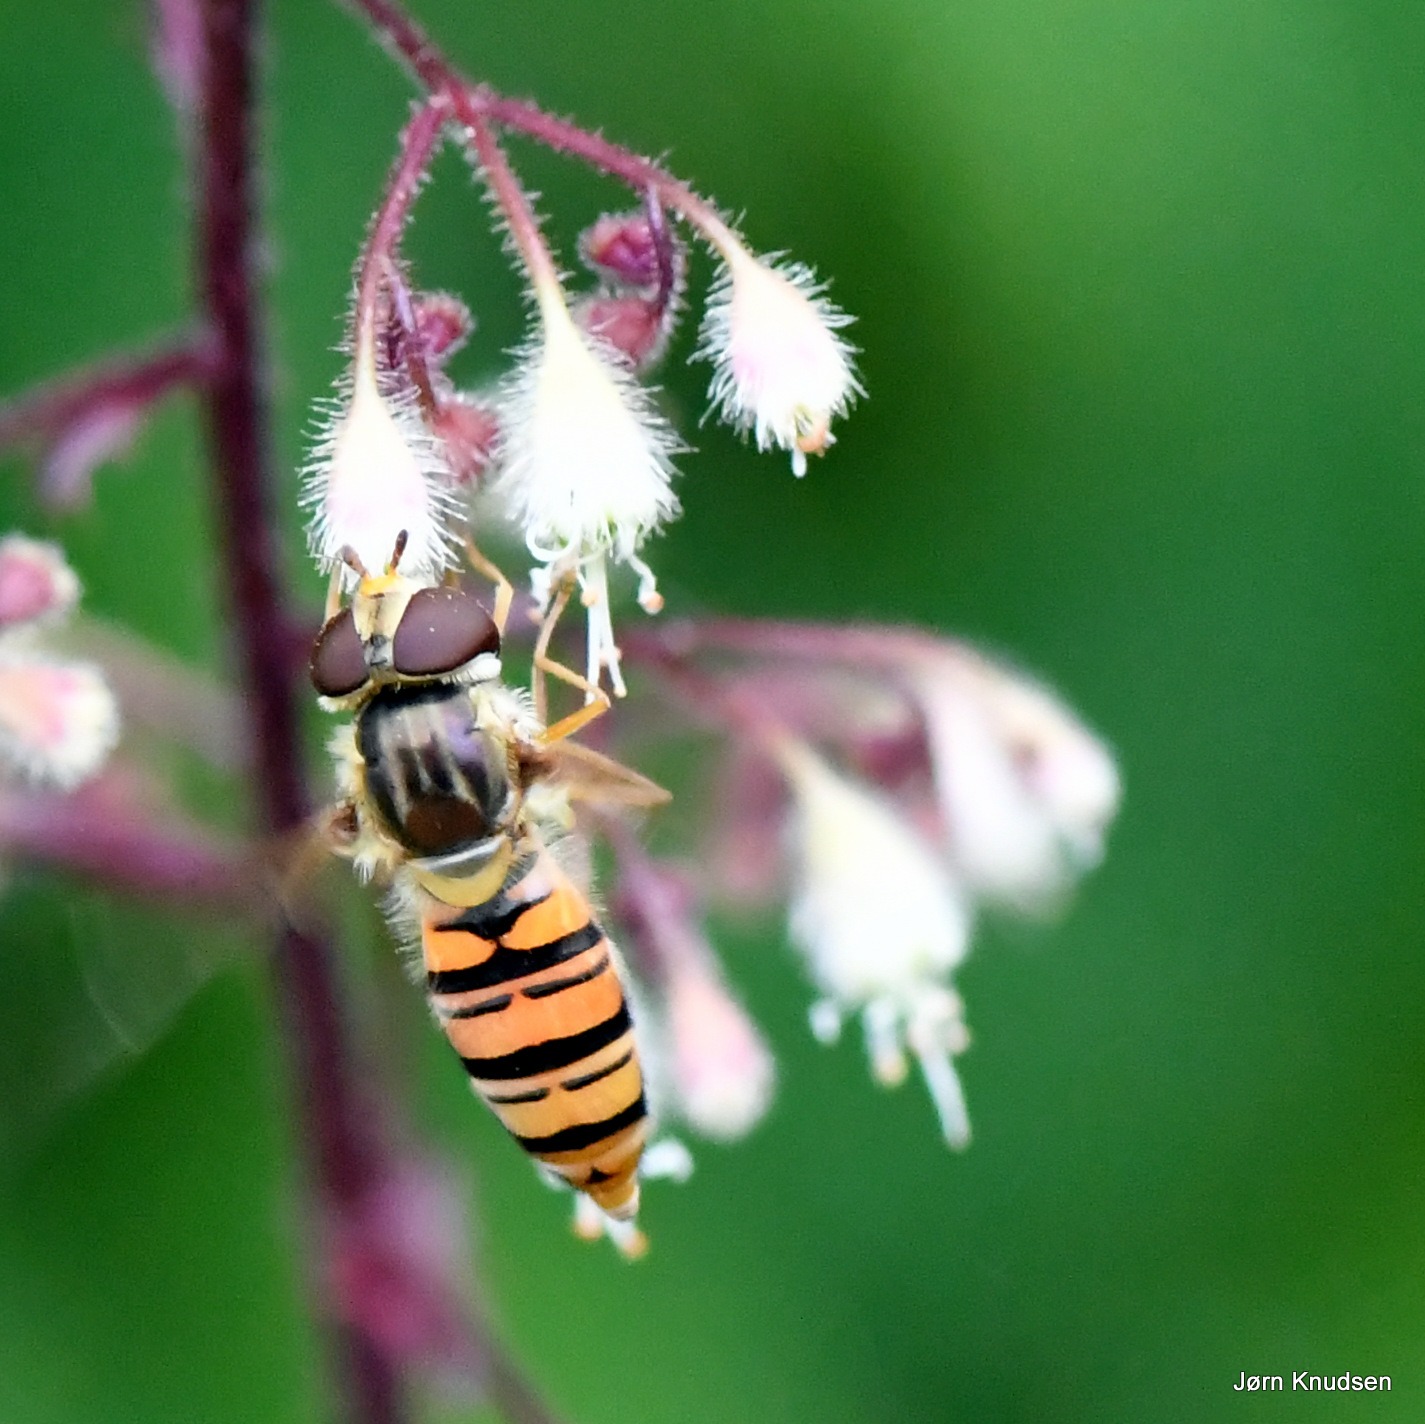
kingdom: Animalia
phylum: Arthropoda
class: Insecta
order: Diptera
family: Syrphidae
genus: Episyrphus
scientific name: Episyrphus balteatus
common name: Dobbeltbåndet svirreflue
